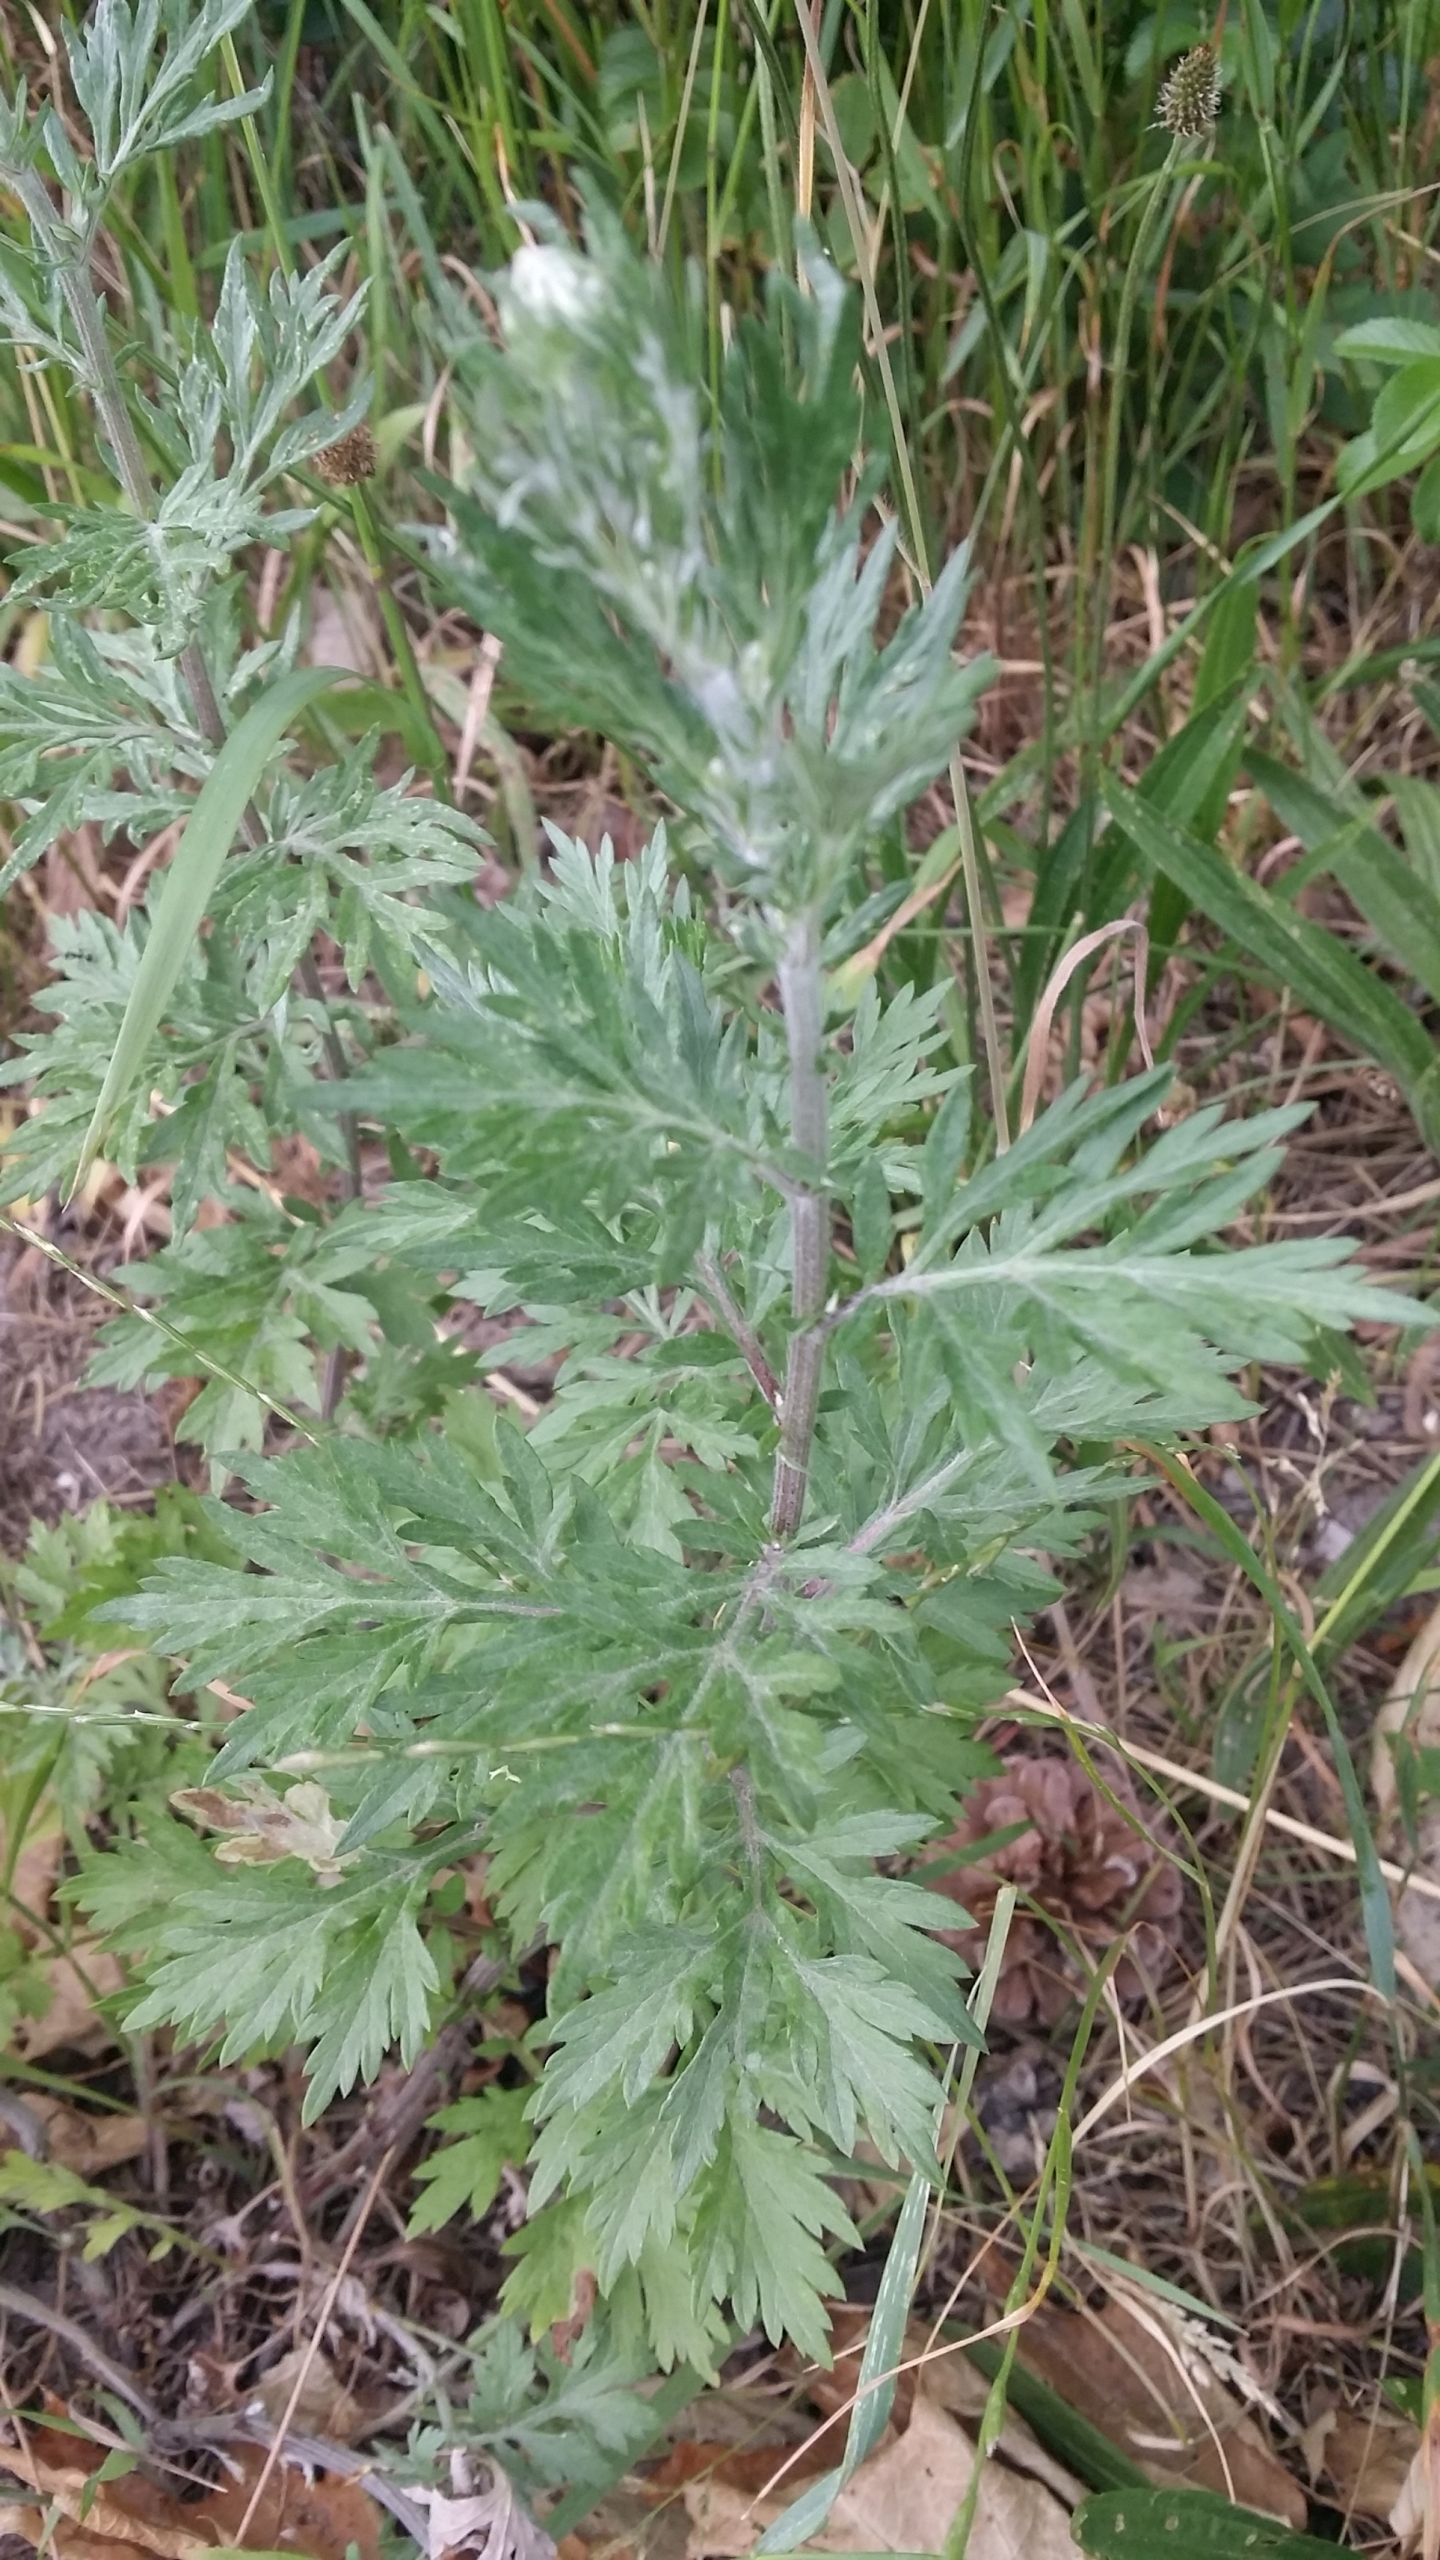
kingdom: Plantae
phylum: Tracheophyta
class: Magnoliopsida
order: Asterales
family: Asteraceae
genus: Artemisia
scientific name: Artemisia vulgaris
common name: Grå-bynke
